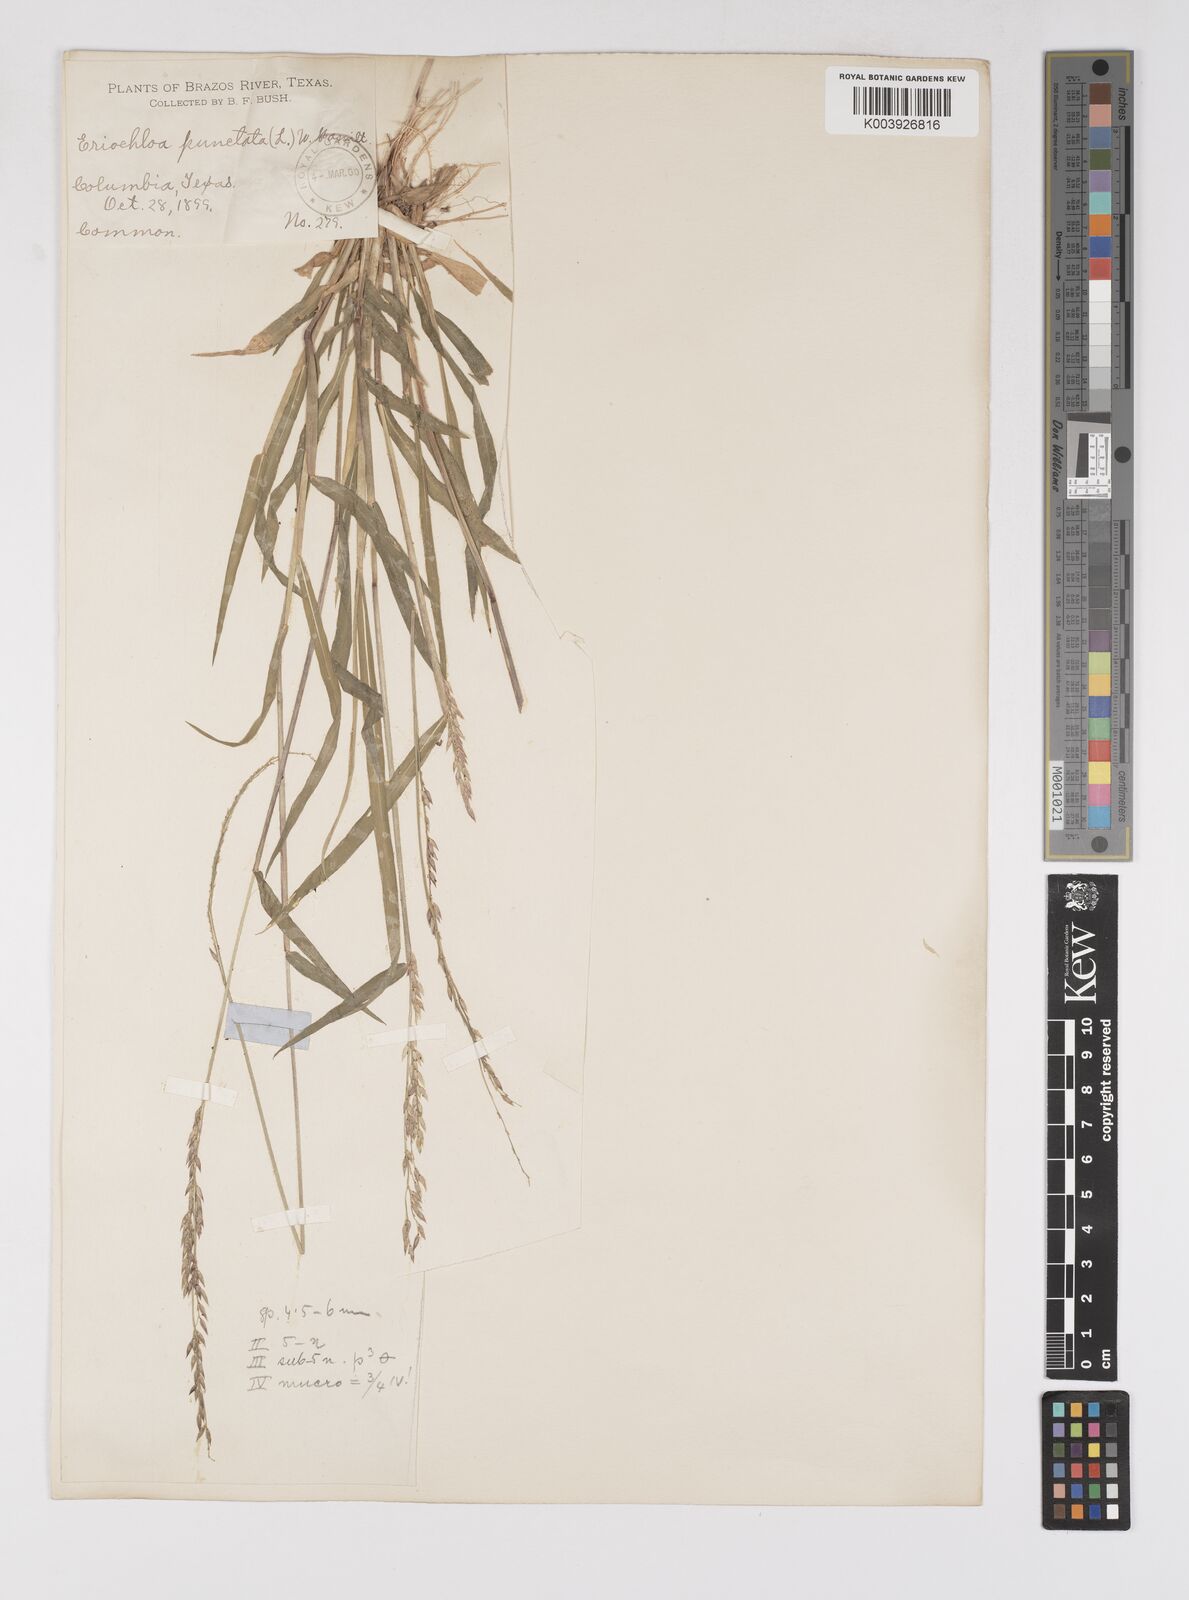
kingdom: Plantae
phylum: Tracheophyta
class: Liliopsida
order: Poales
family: Poaceae
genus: Eriochloa
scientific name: Eriochloa punctata
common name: Louisiana cupgrass
